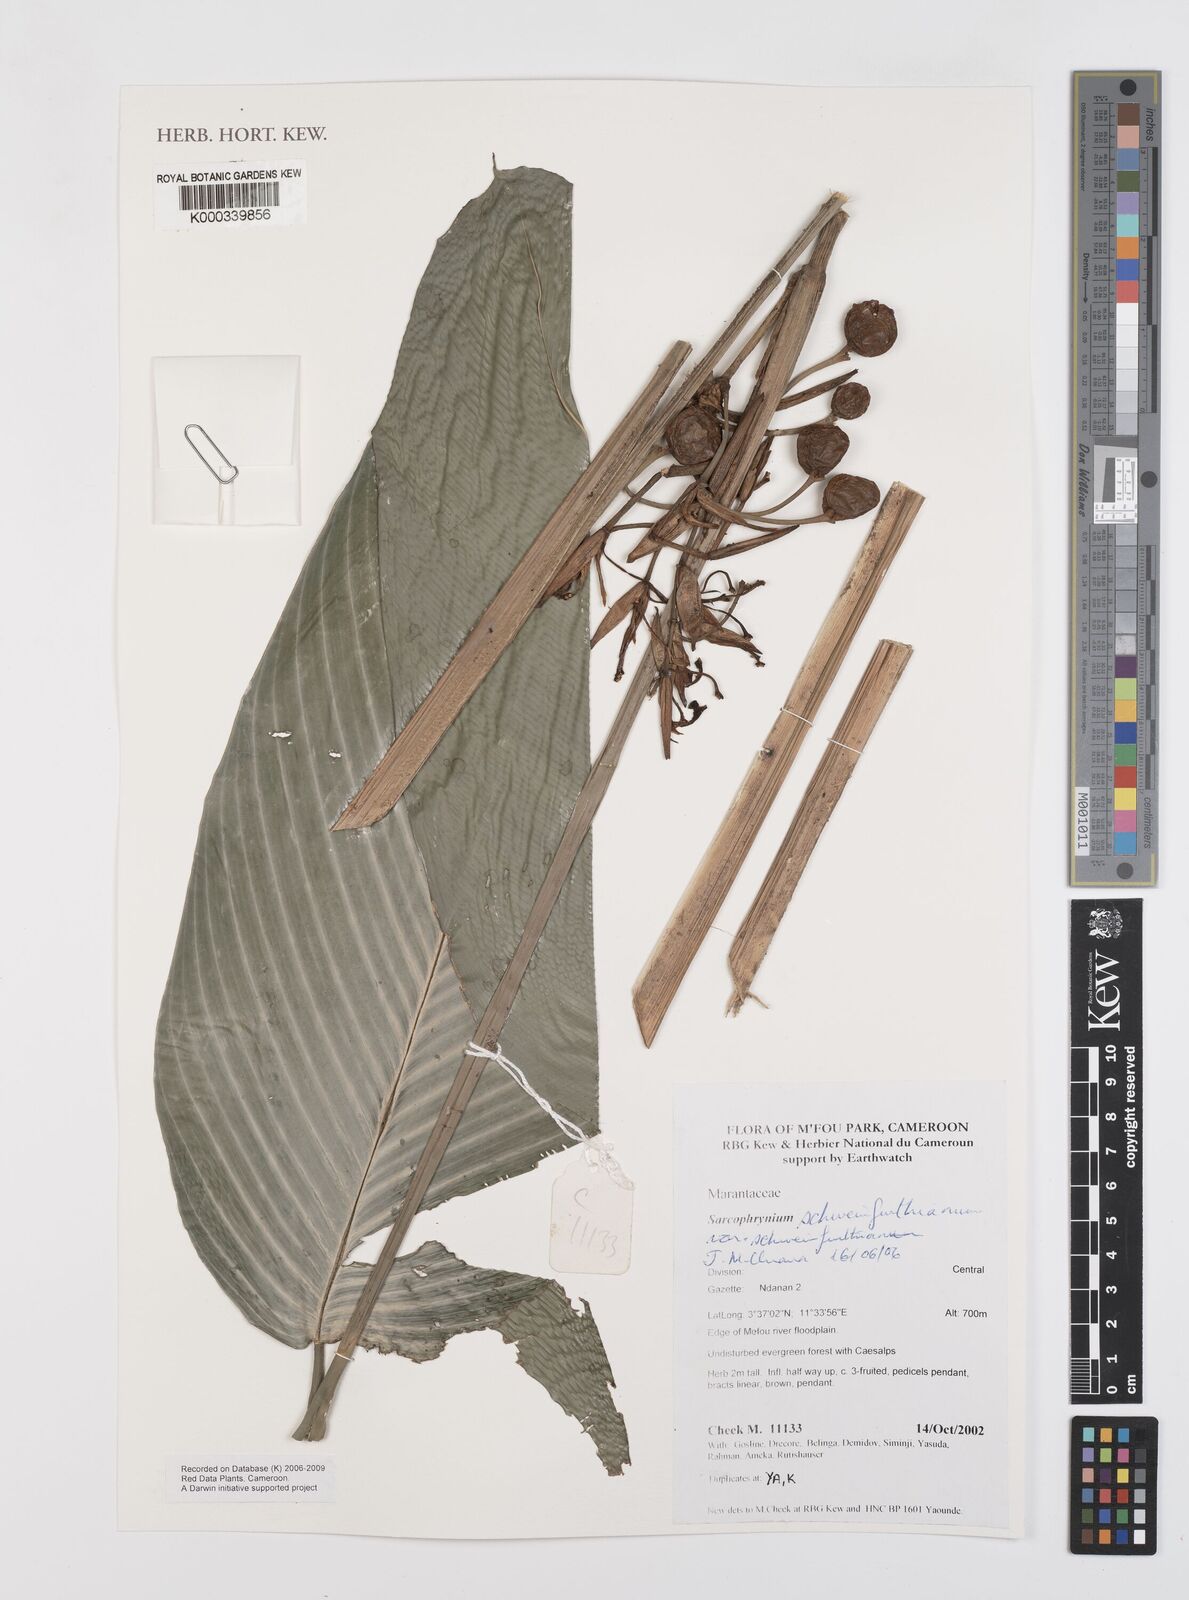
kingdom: Plantae
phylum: Tracheophyta
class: Liliopsida
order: Zingiberales
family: Marantaceae
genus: Sarcophrynium
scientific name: Sarcophrynium schweinfurthianum
